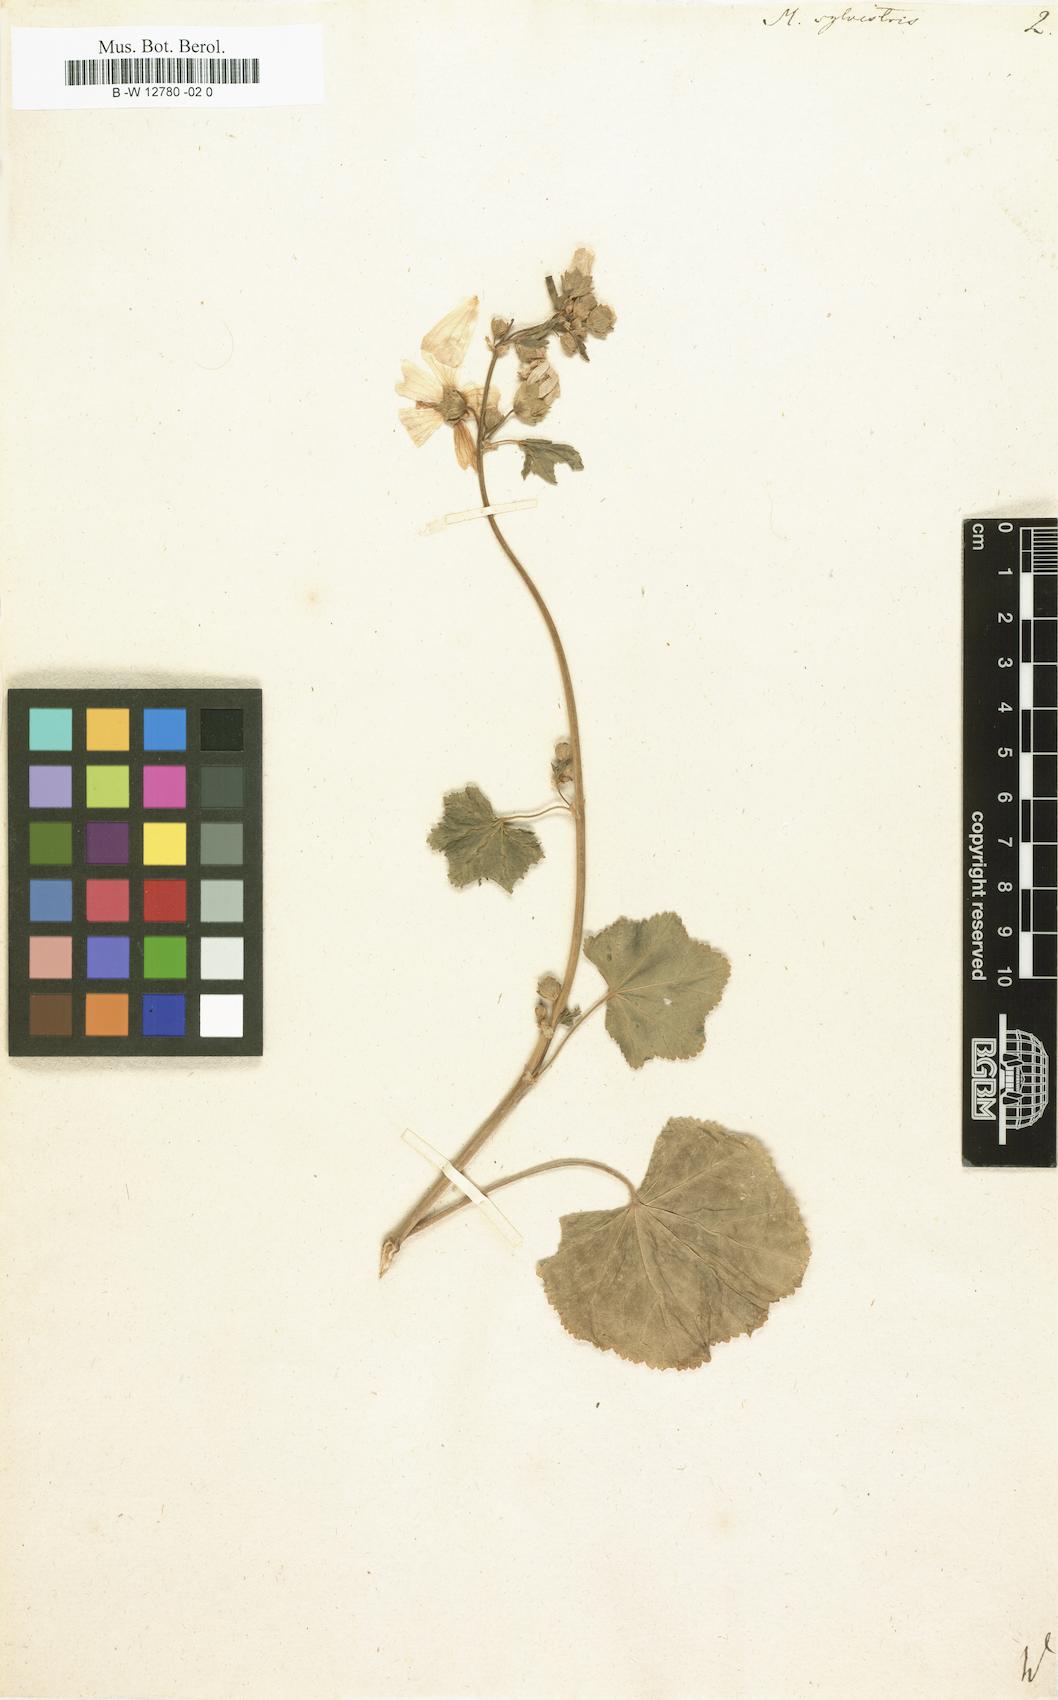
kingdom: Plantae
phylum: Tracheophyta
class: Magnoliopsida
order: Malvales
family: Malvaceae
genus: Malva
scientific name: Malva sylvestris
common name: Common mallow
